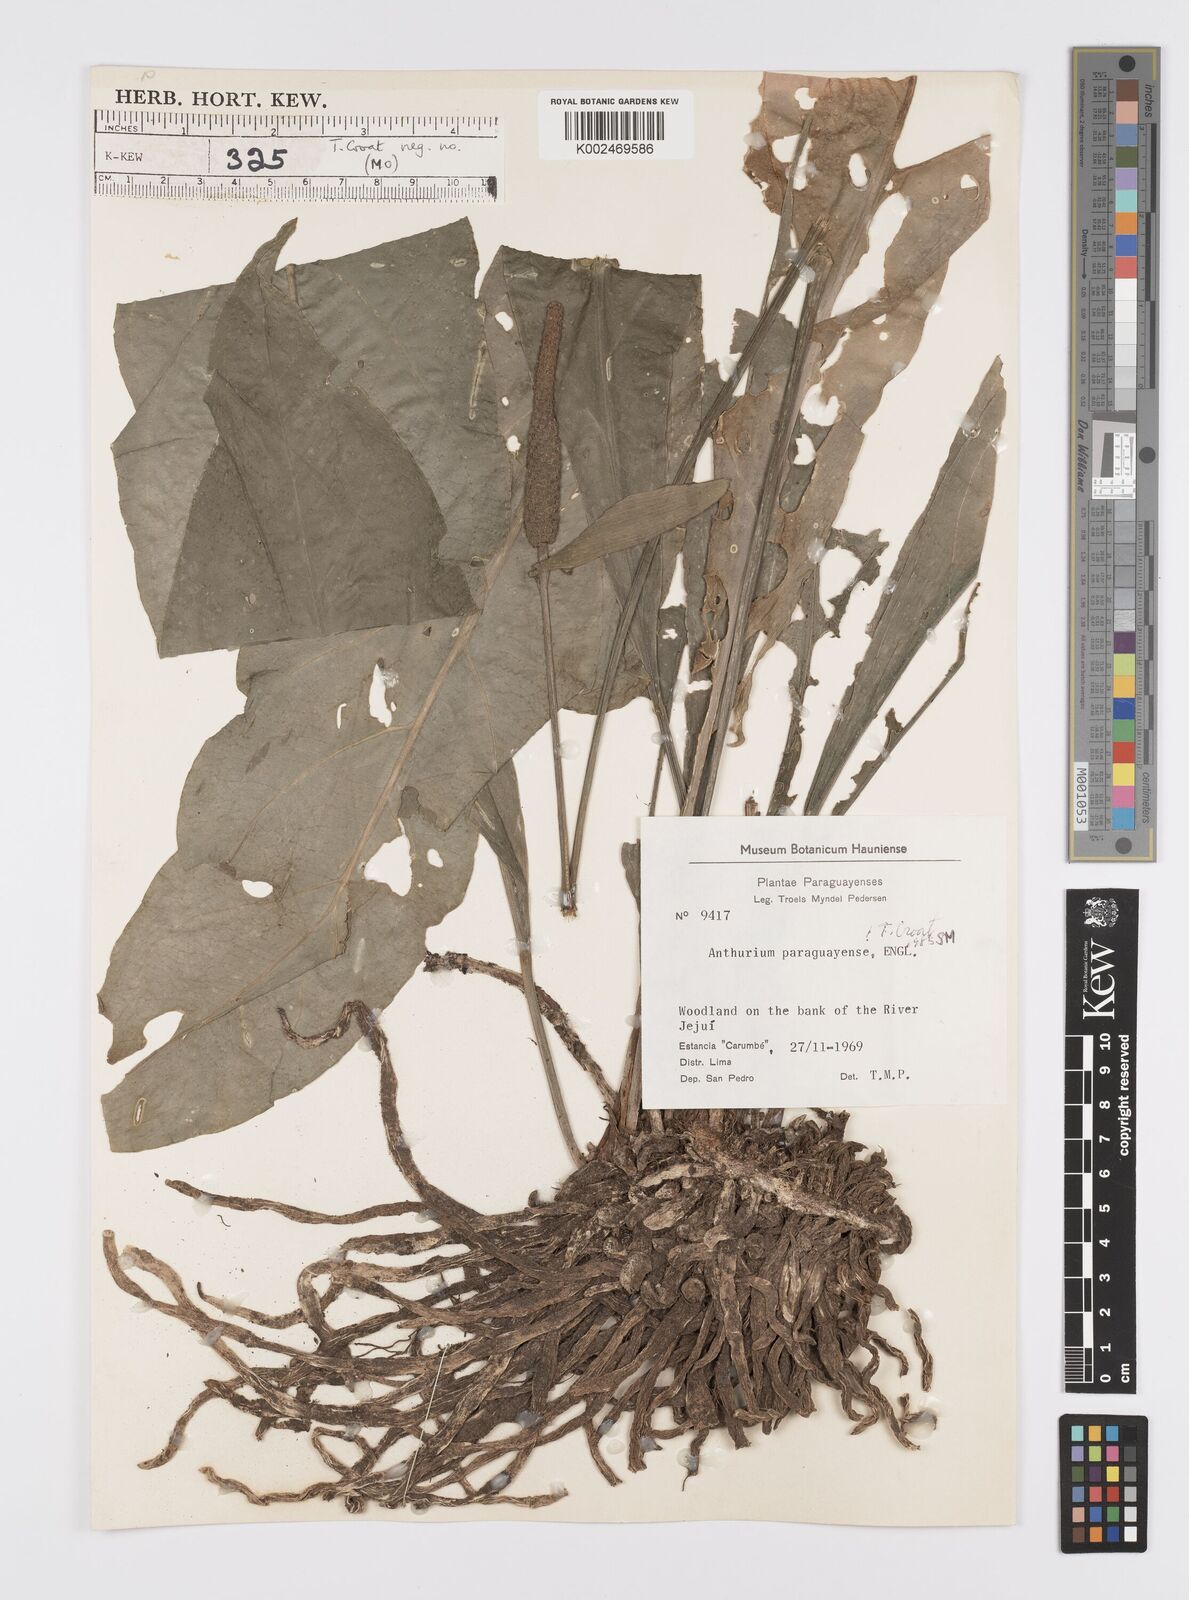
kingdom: Plantae
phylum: Tracheophyta
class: Liliopsida
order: Alismatales
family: Araceae
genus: Anthurium
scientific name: Anthurium paraguayense
